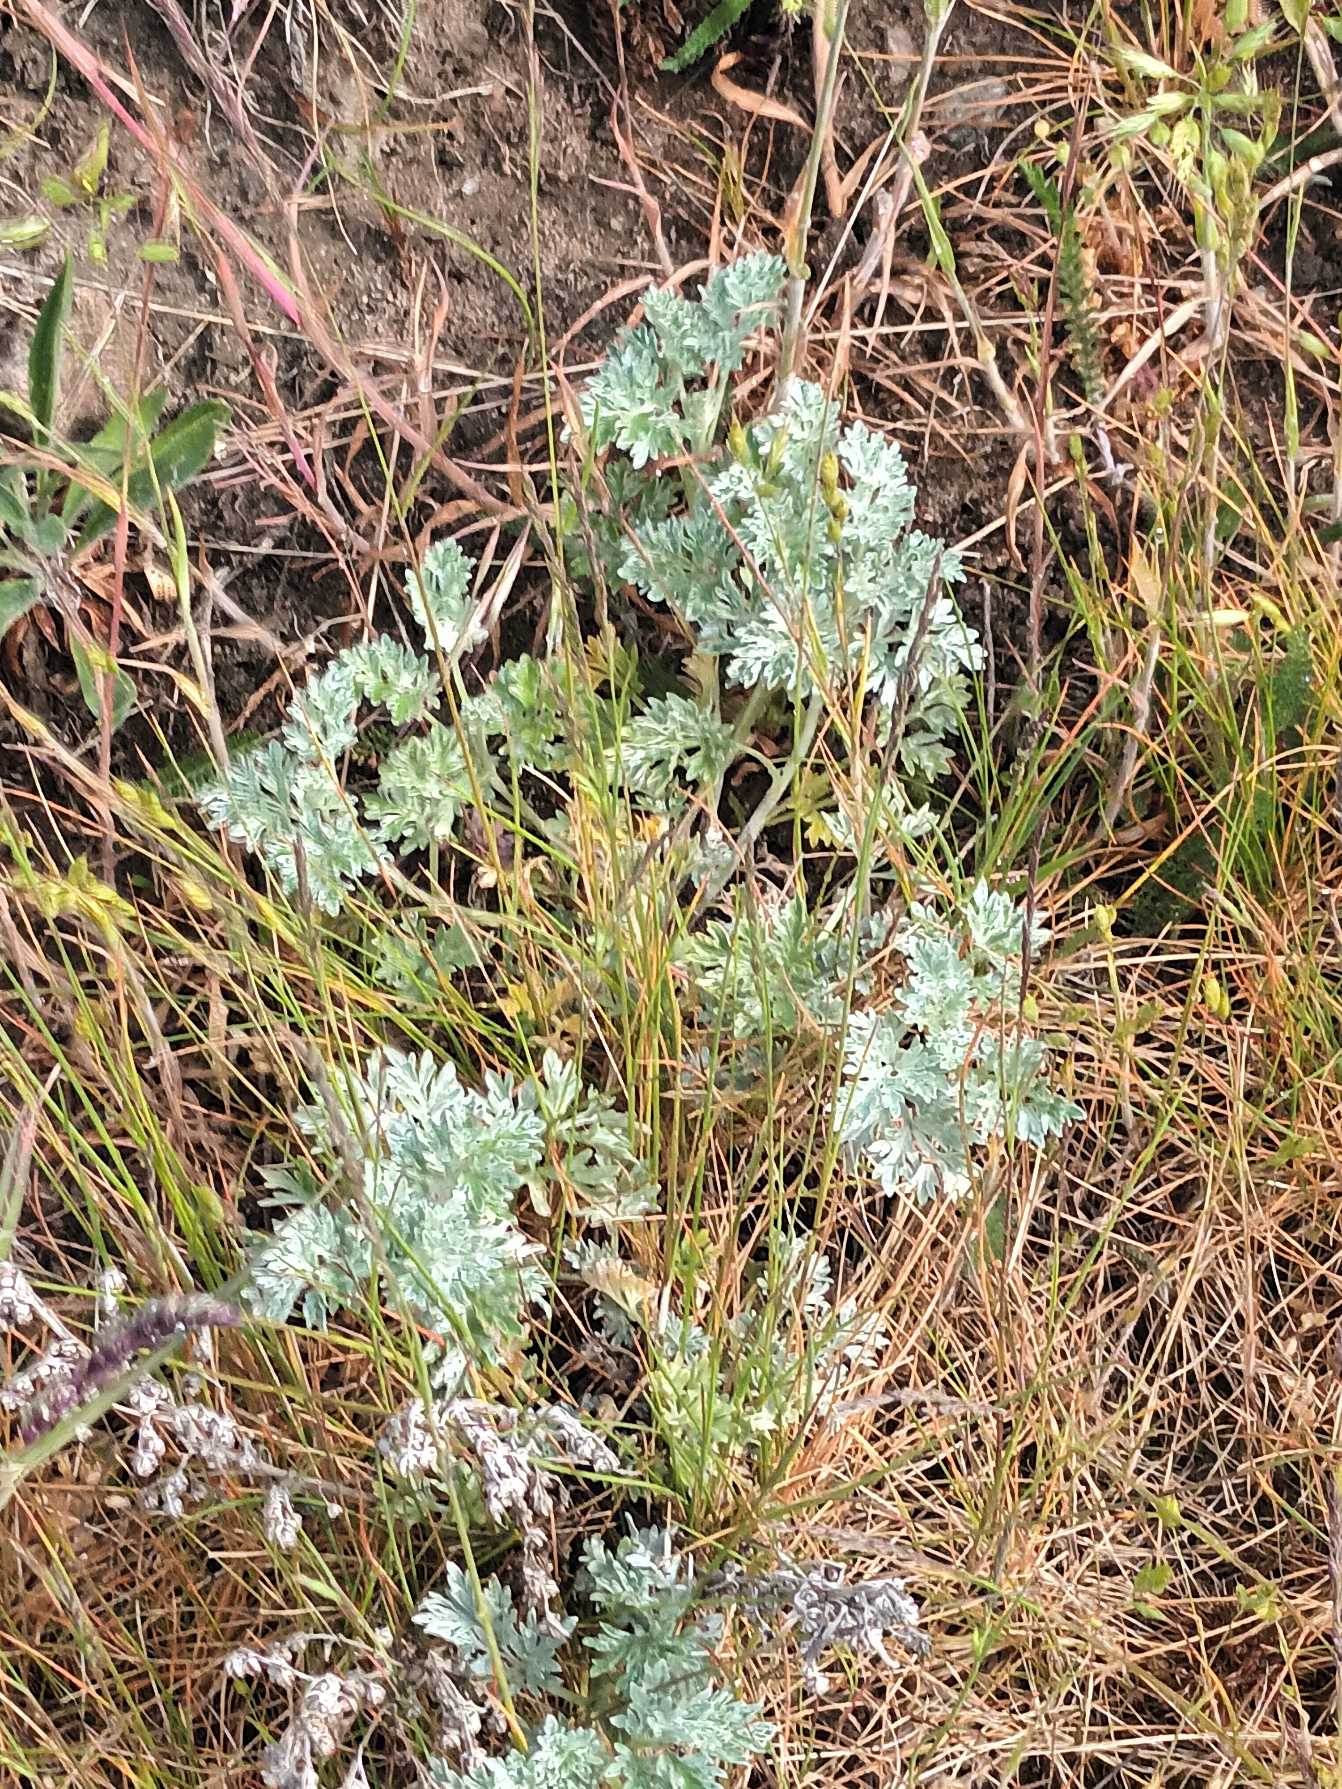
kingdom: Plantae
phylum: Tracheophyta
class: Magnoliopsida
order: Asterales
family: Asteraceae
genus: Artemisia
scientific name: Artemisia absinthium
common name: Havemalurt
